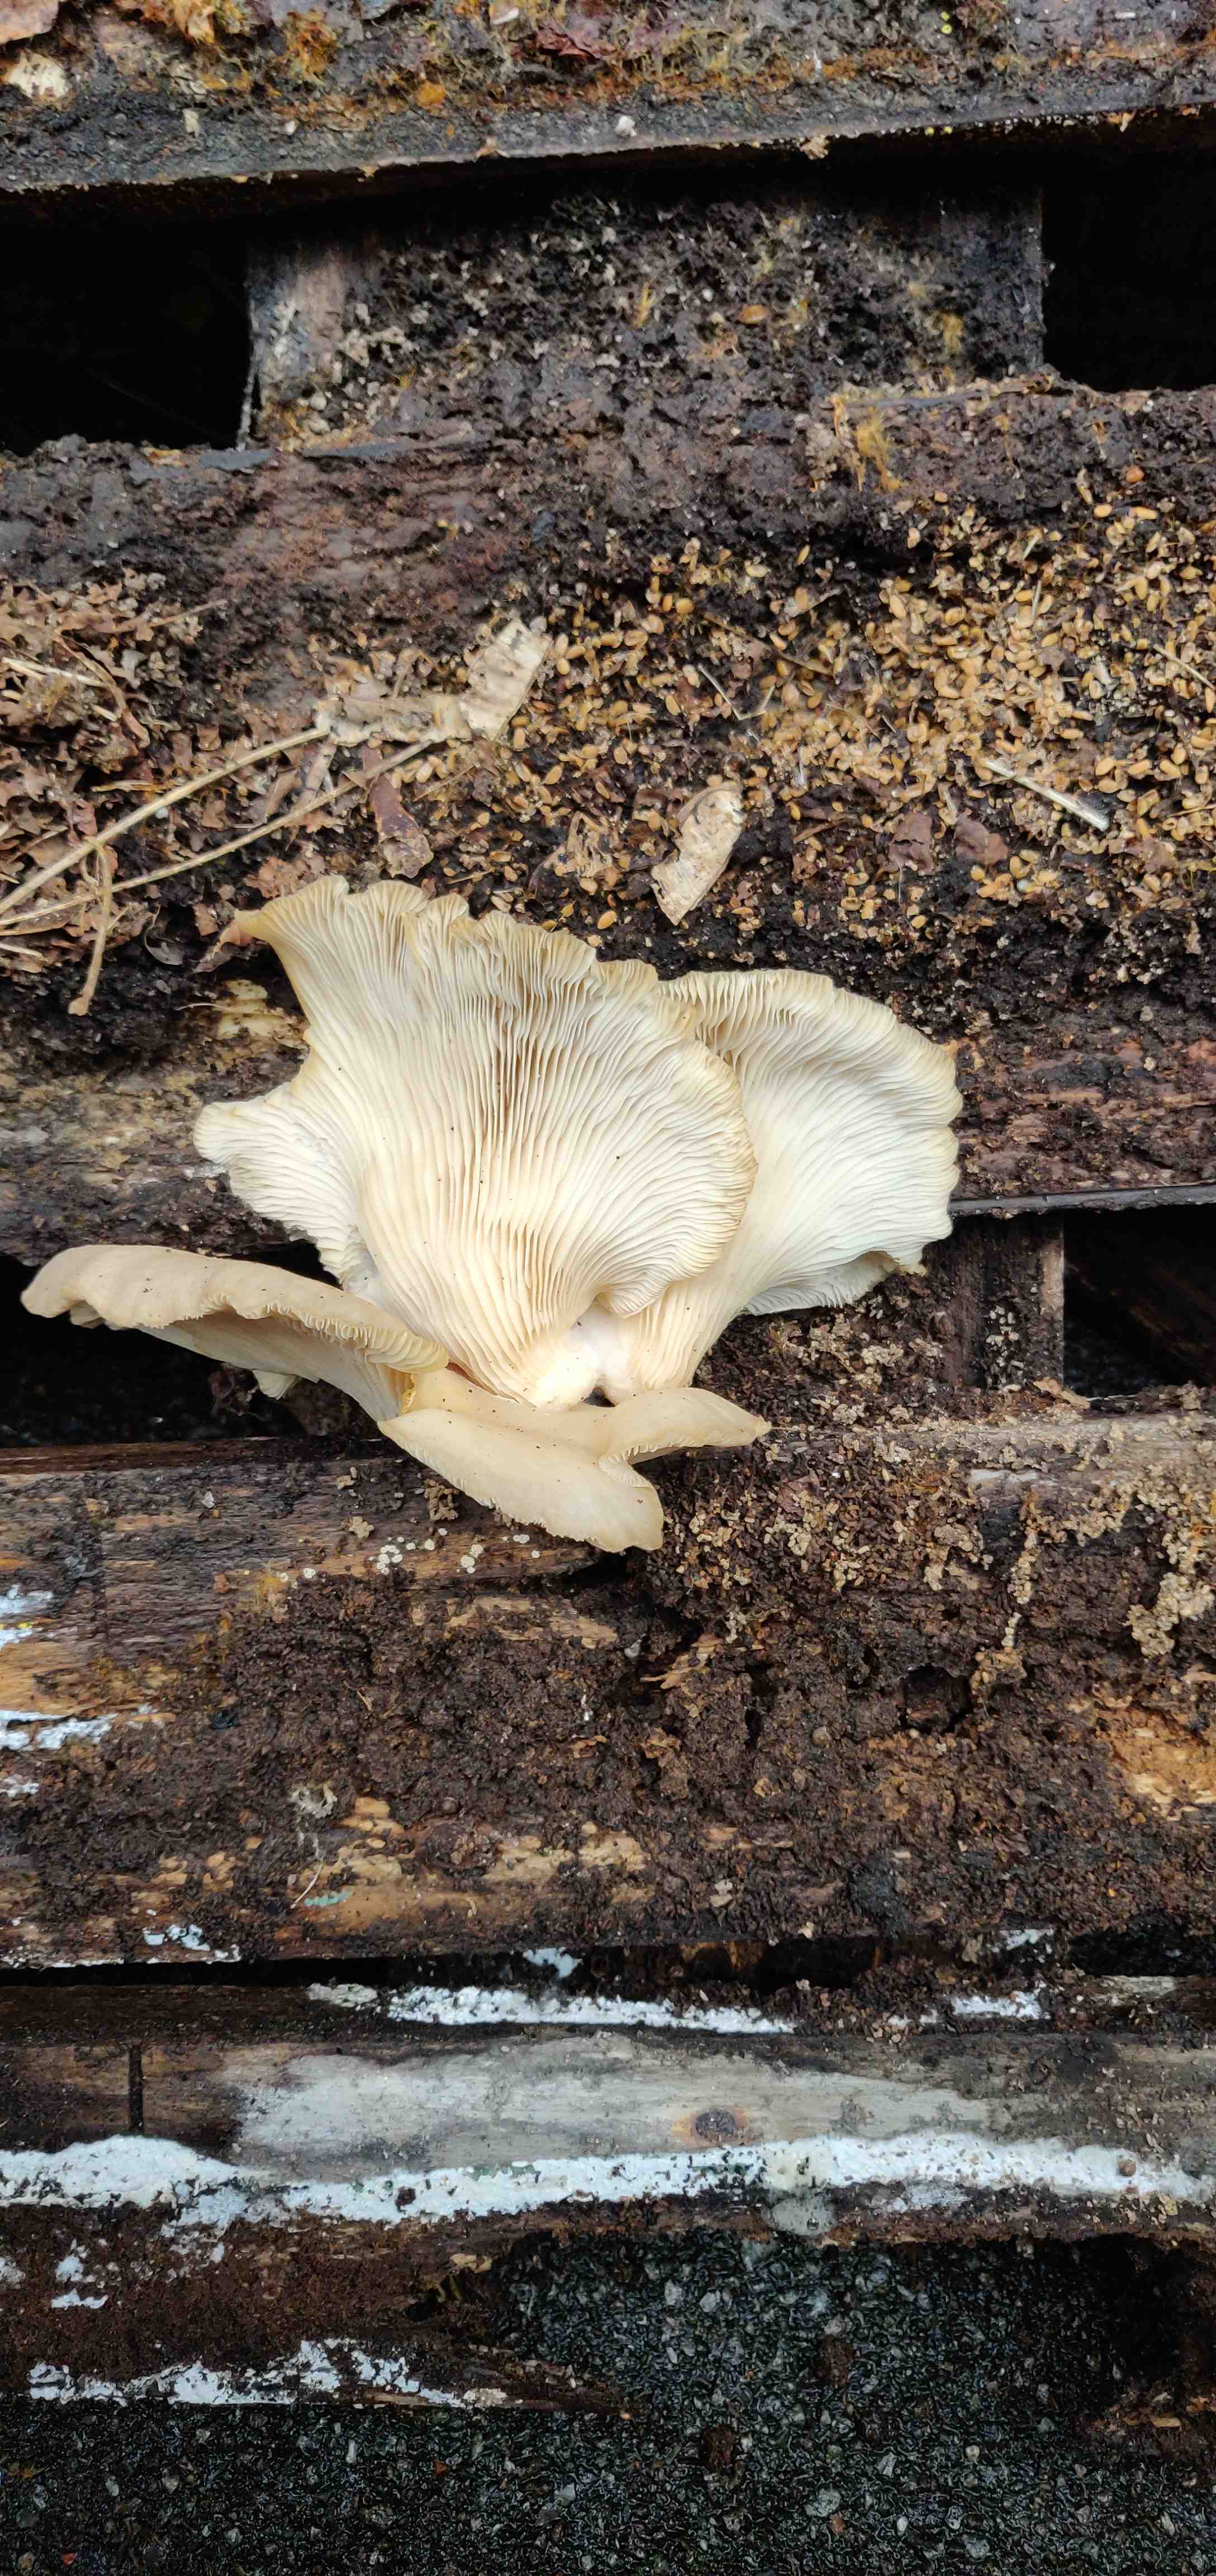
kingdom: Fungi
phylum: Basidiomycota
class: Agaricomycetes
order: Agaricales
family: Pleurotaceae
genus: Pleurotus
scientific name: Pleurotus ostreatus
